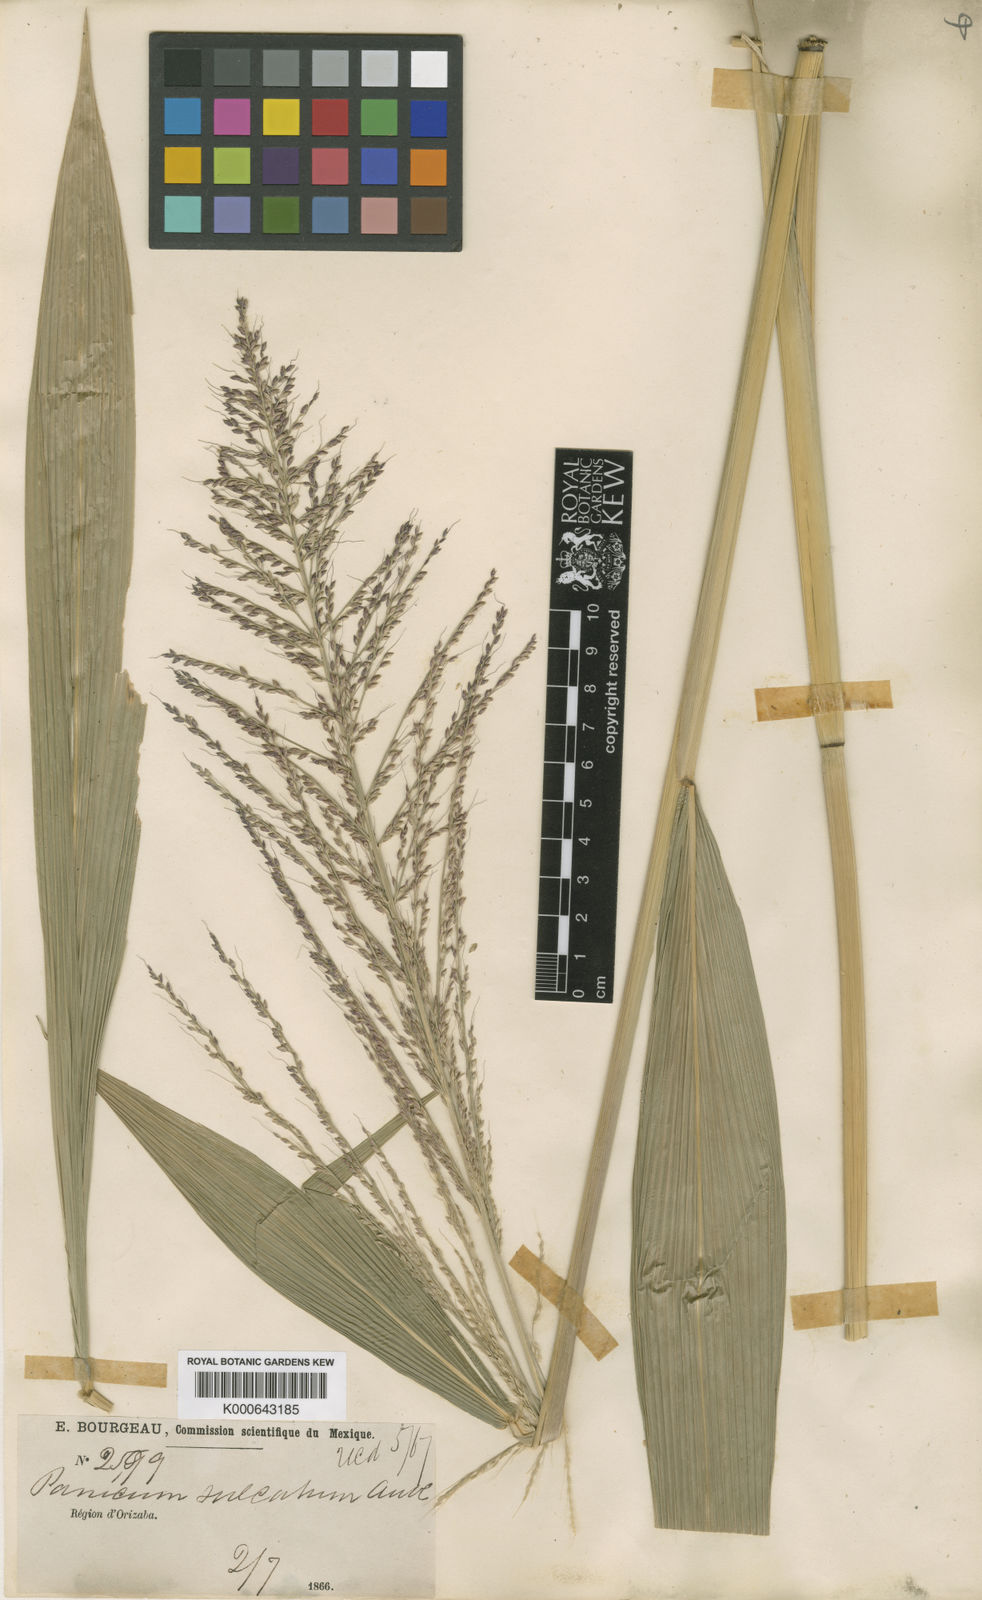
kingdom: Plantae
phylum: Tracheophyta
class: Liliopsida
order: Poales
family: Poaceae
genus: Setaria
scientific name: Setaria palmifolia
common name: Broadleaved bristlegrass
